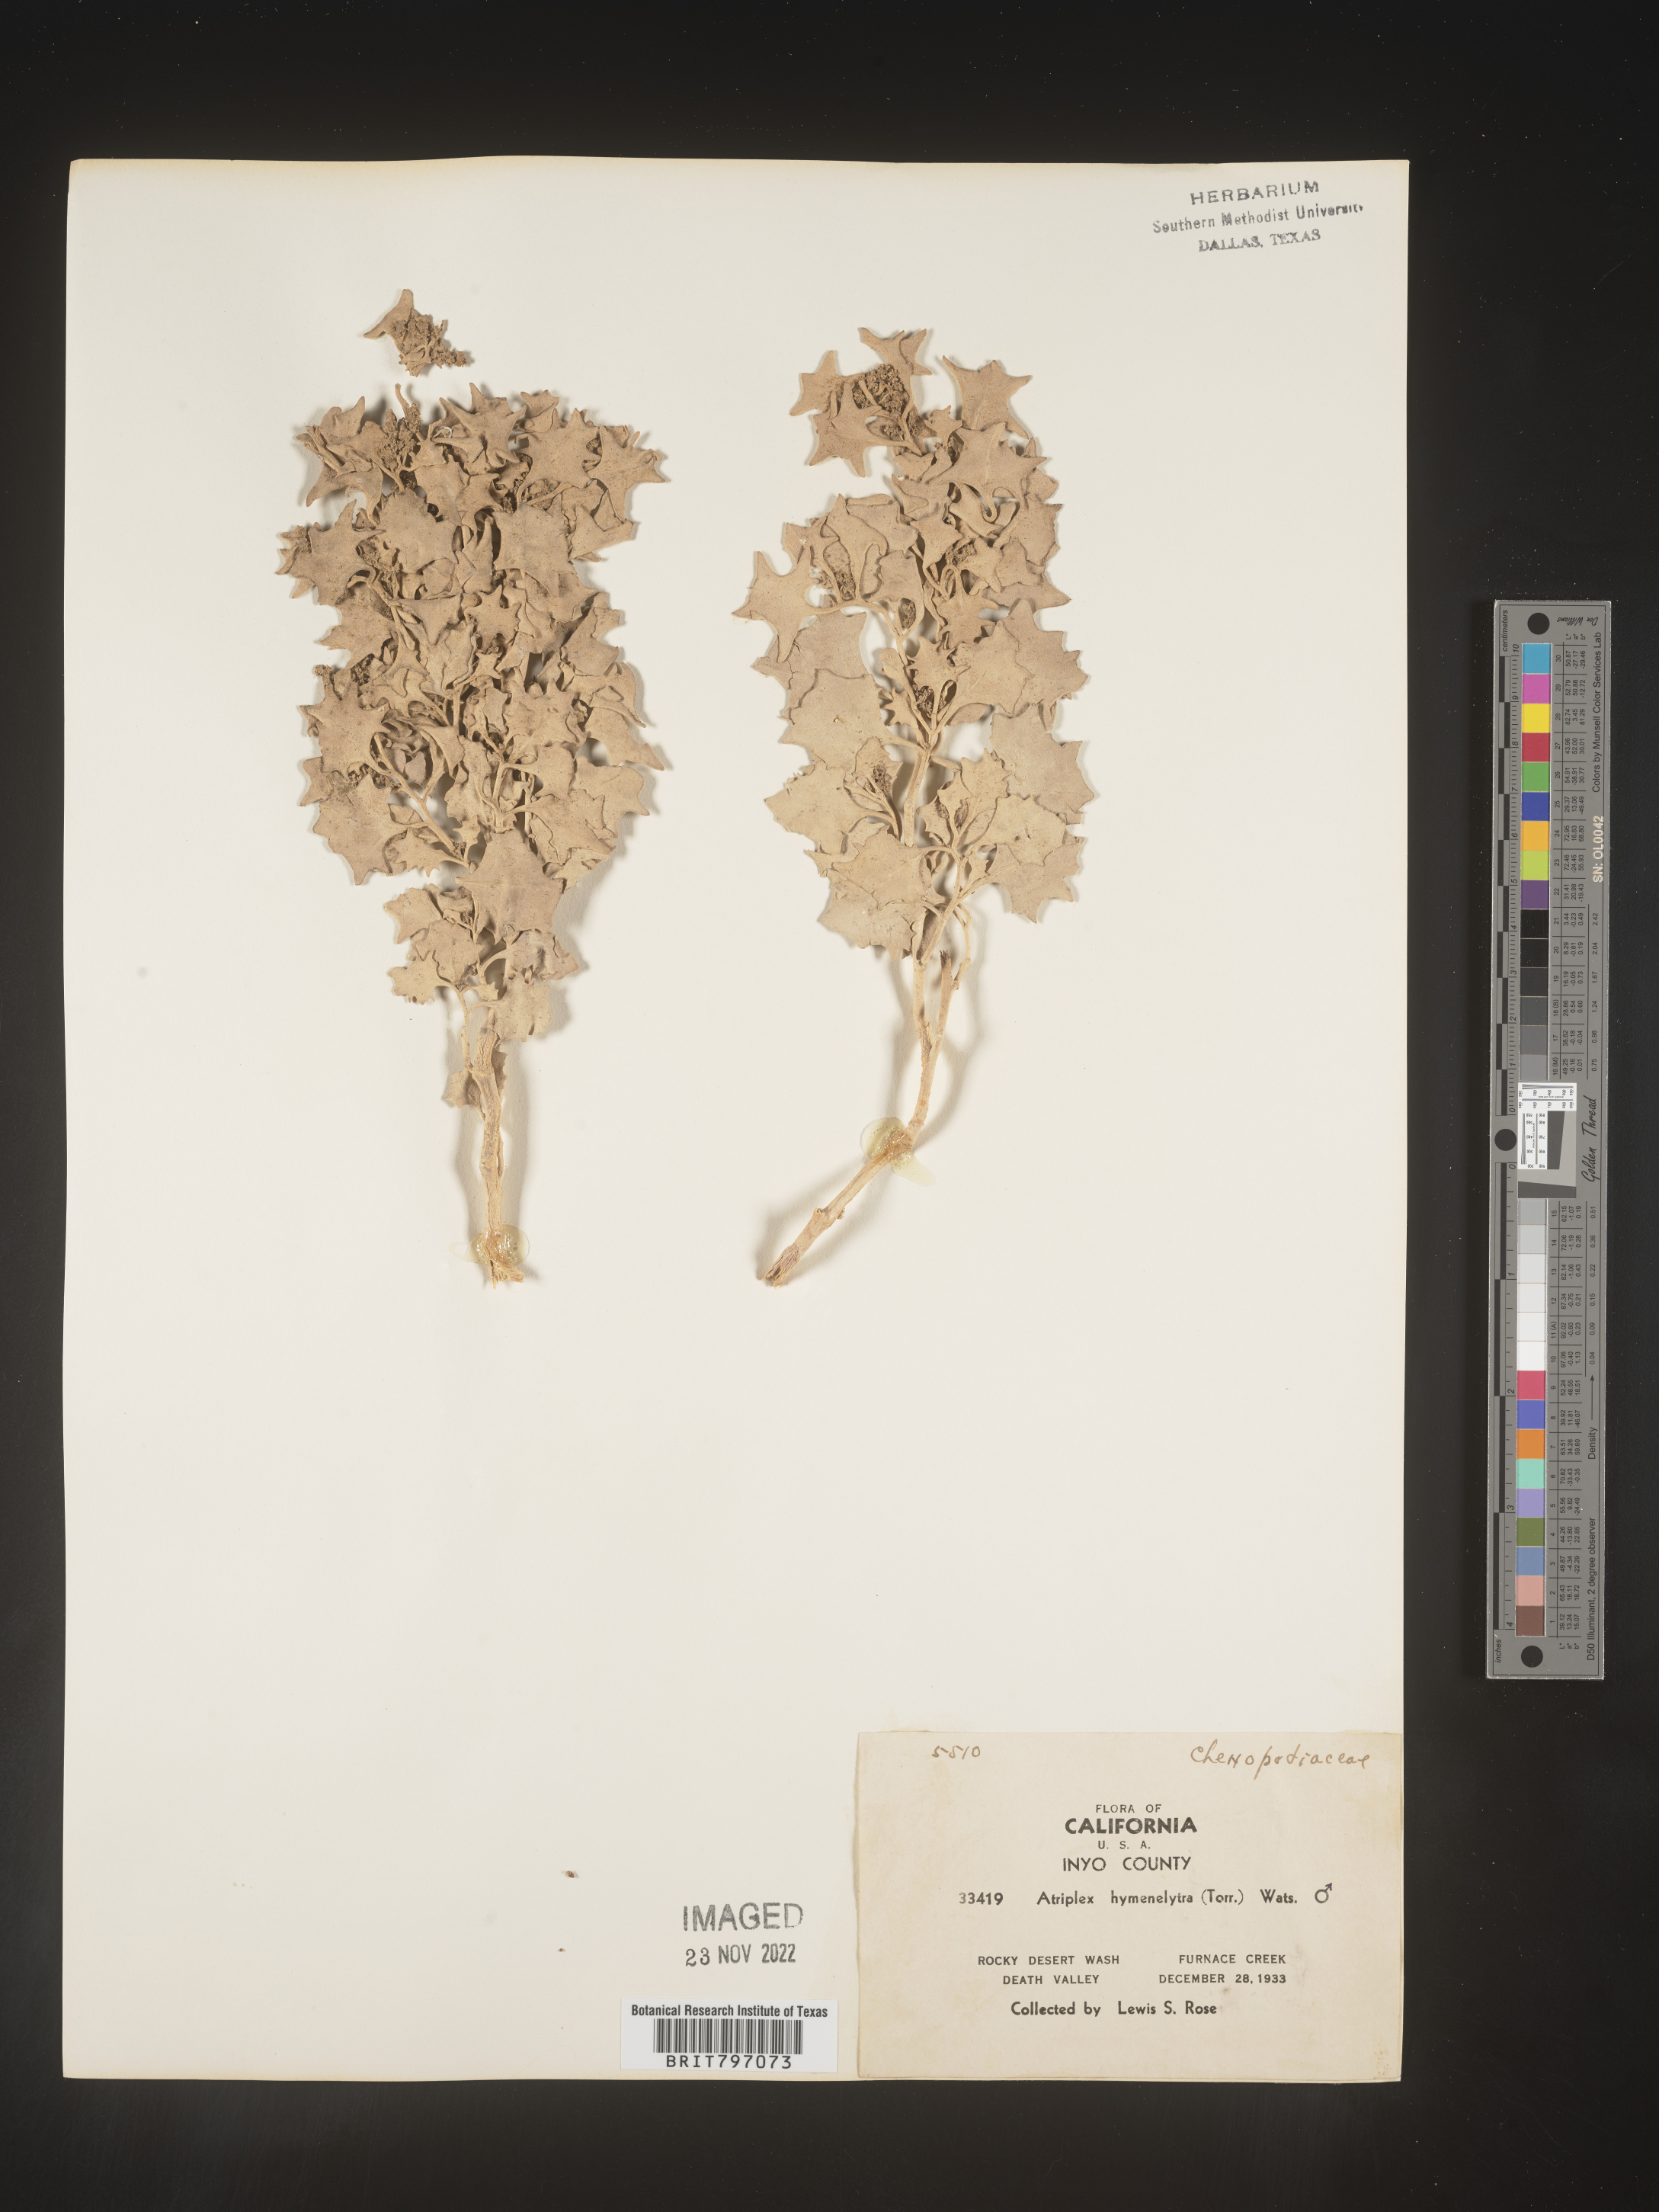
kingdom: Plantae
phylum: Tracheophyta
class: Magnoliopsida
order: Caryophyllales
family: Amaranthaceae
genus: Atriplex
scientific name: Atriplex
